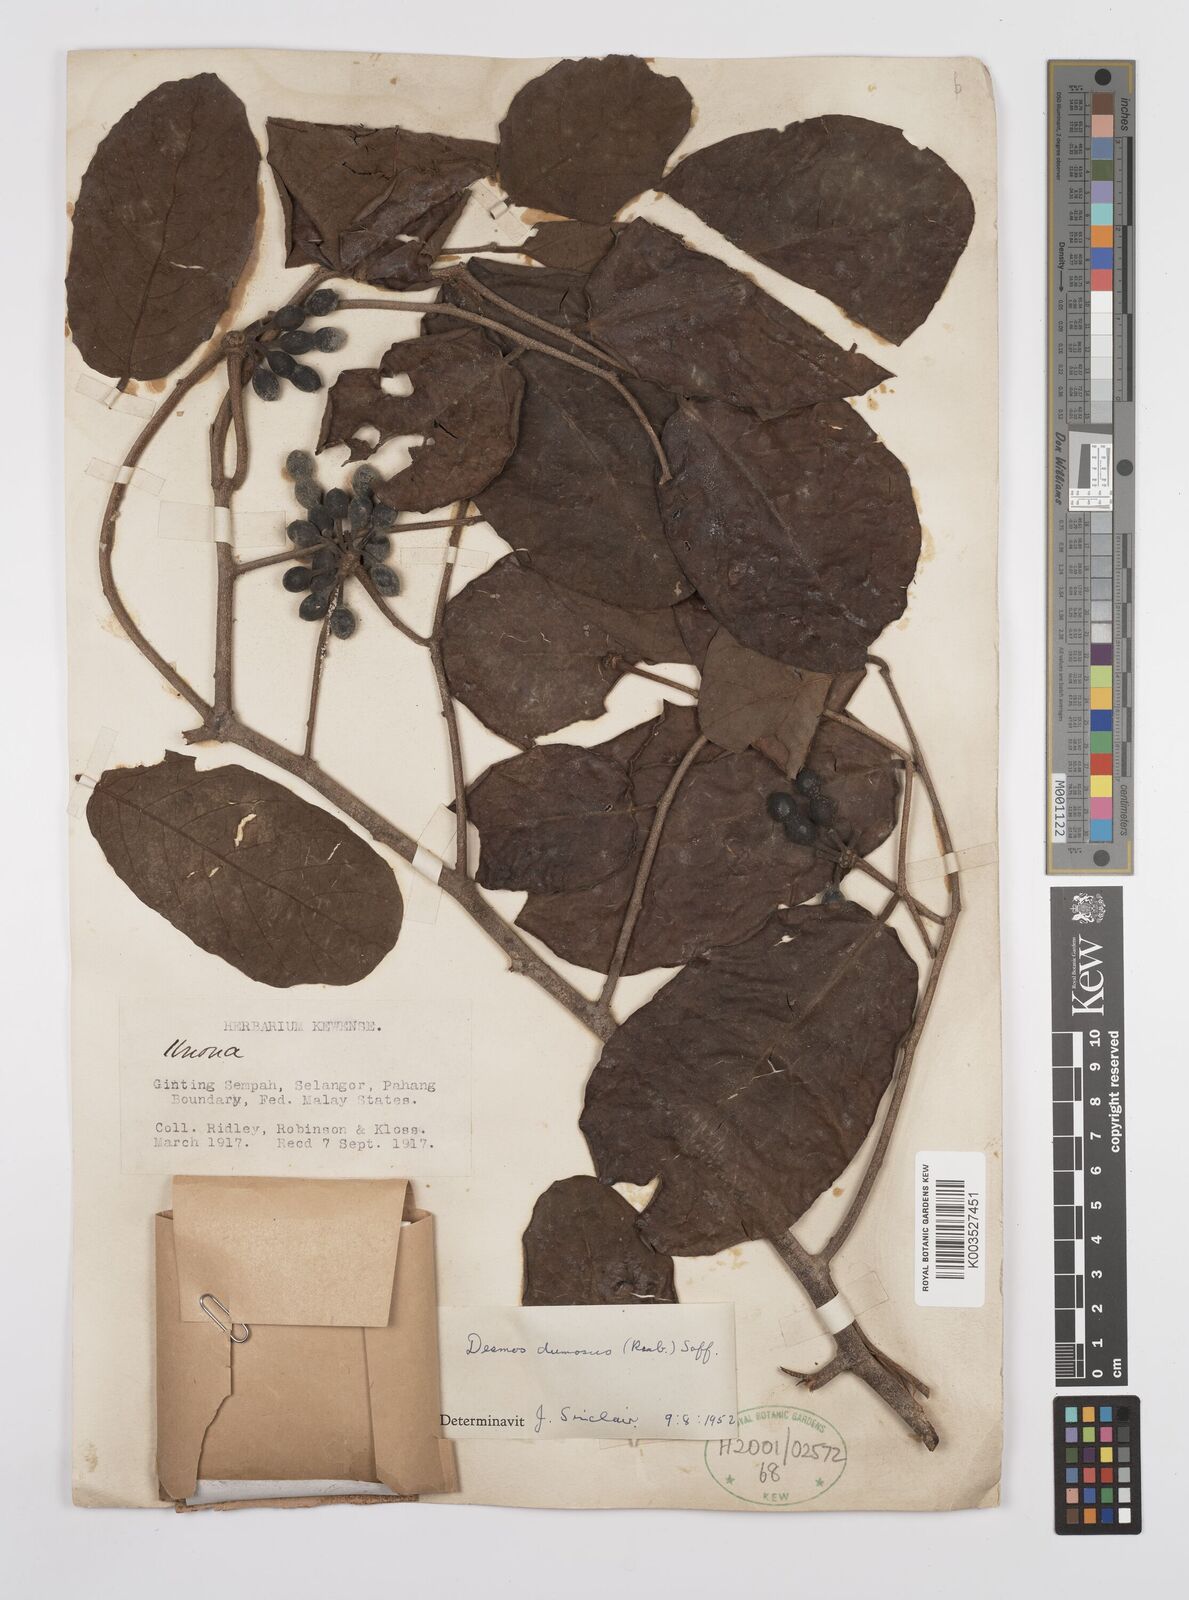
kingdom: Plantae
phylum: Tracheophyta
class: Magnoliopsida
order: Magnoliales
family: Annonaceae
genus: Desmos
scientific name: Desmos dumosus
